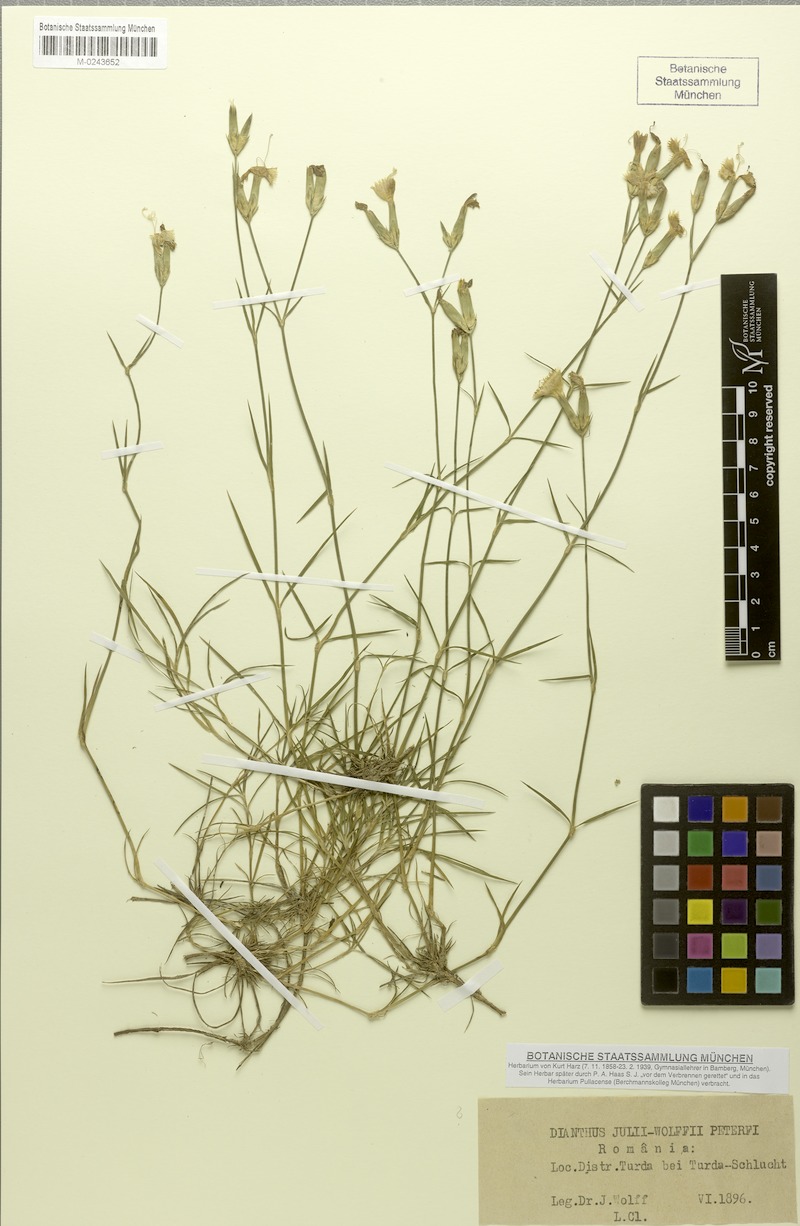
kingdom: Plantae
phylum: Tracheophyta
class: Magnoliopsida
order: Caryophyllales
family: Caryophyllaceae
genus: Dianthus
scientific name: Dianthus julii-wolfii
